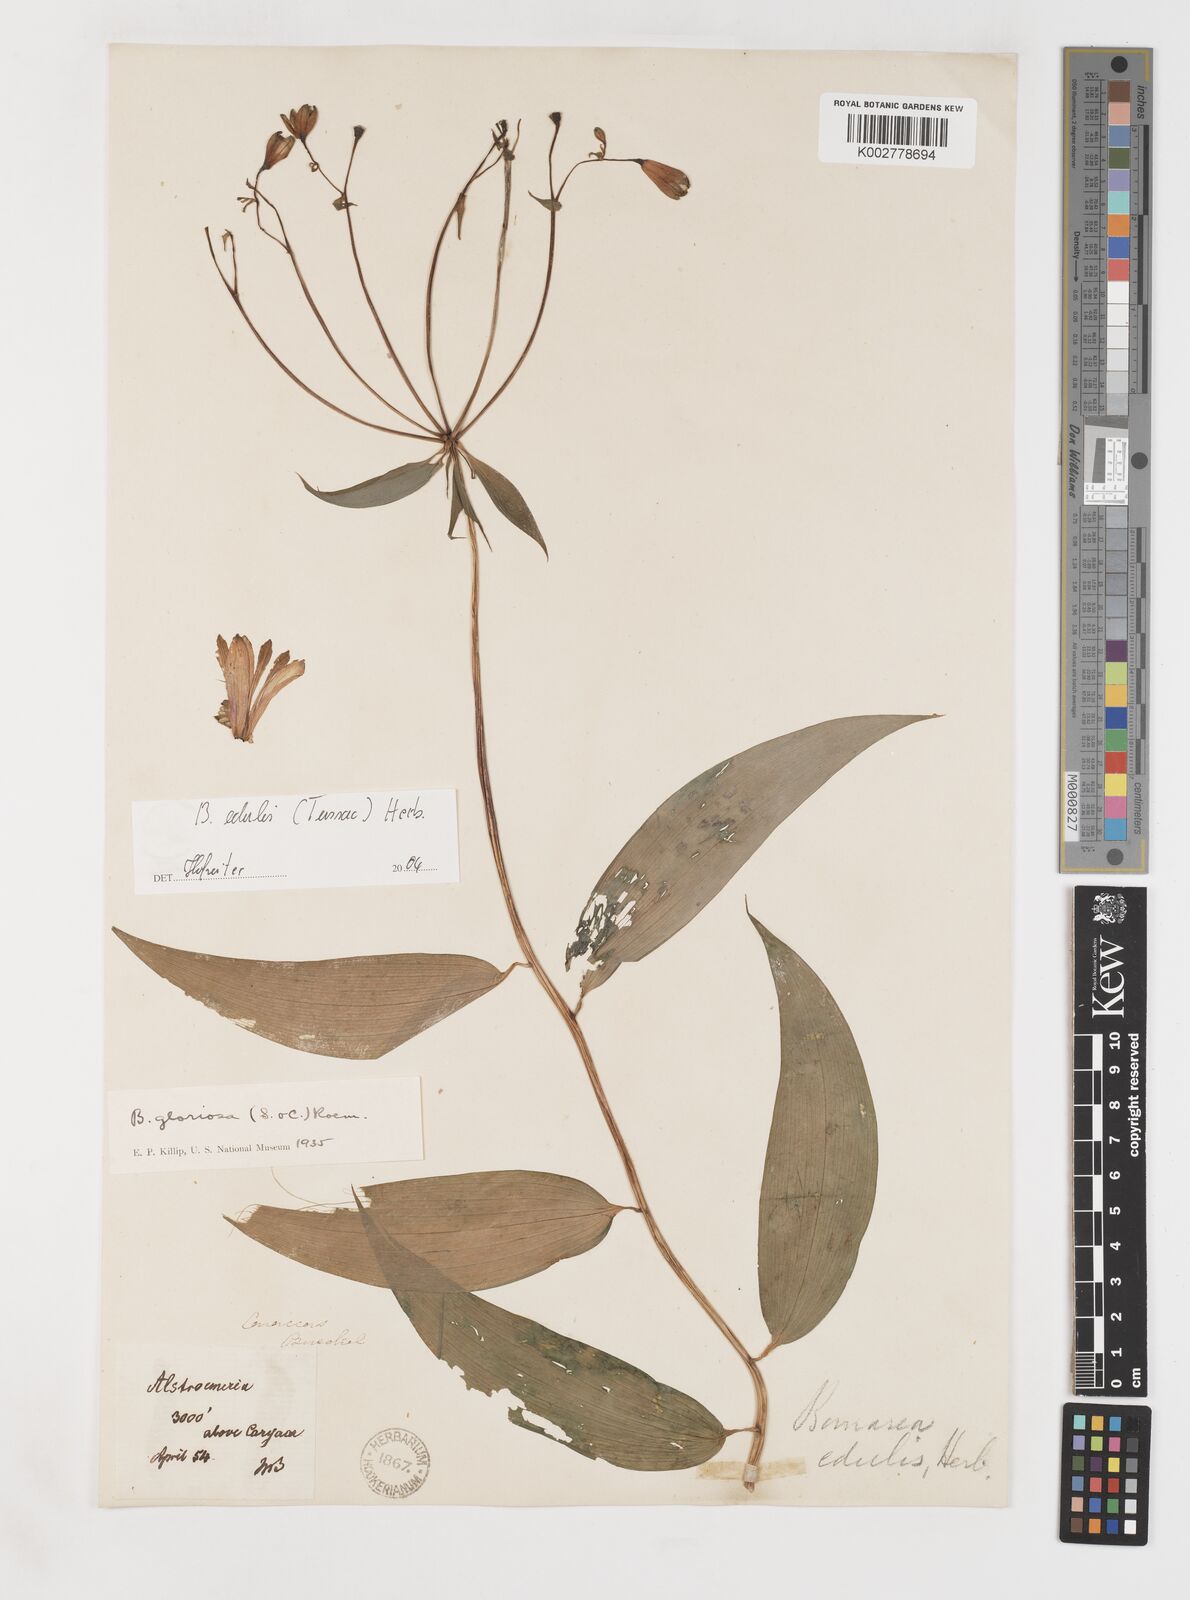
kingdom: Plantae
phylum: Tracheophyta
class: Liliopsida
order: Liliales
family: Alstroemeriaceae
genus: Bomarea
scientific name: Bomarea edulis
